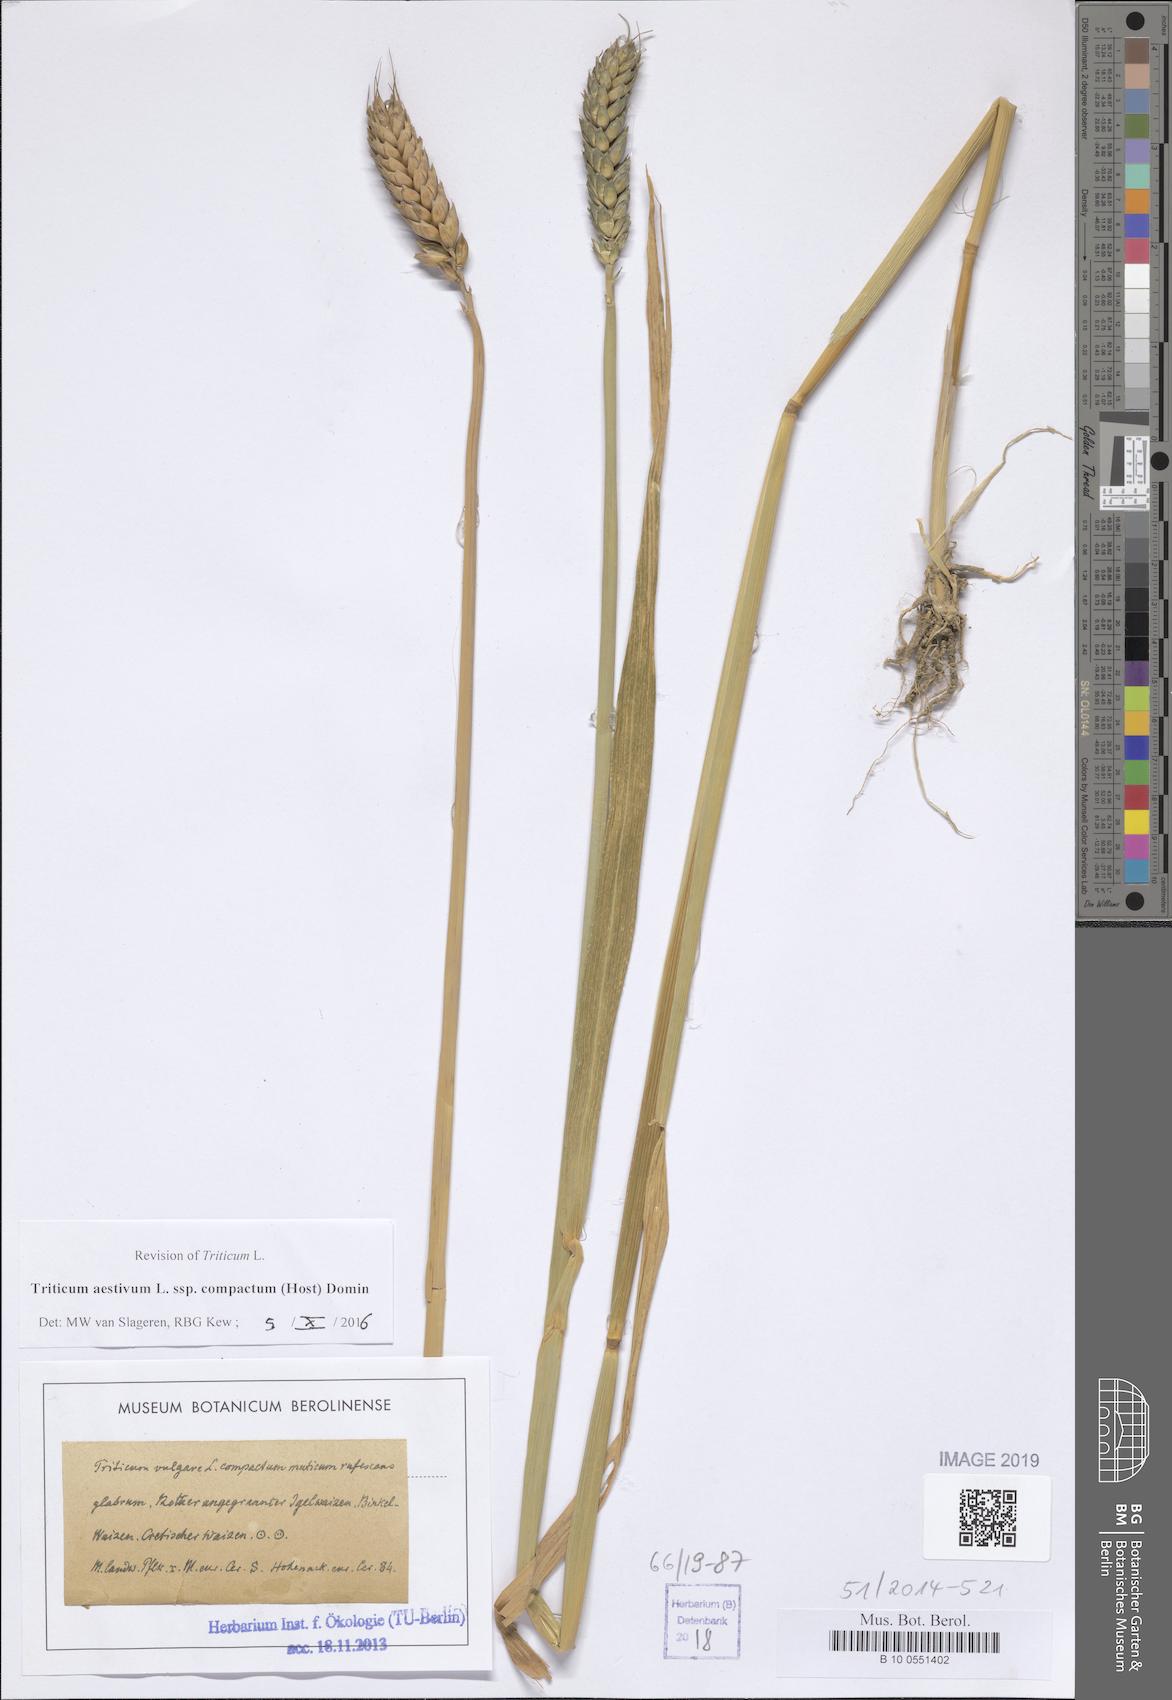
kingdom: Plantae
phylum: Tracheophyta
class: Liliopsida
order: Poales
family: Poaceae
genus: Triticum
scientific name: Triticum aestivum
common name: Common wheat
